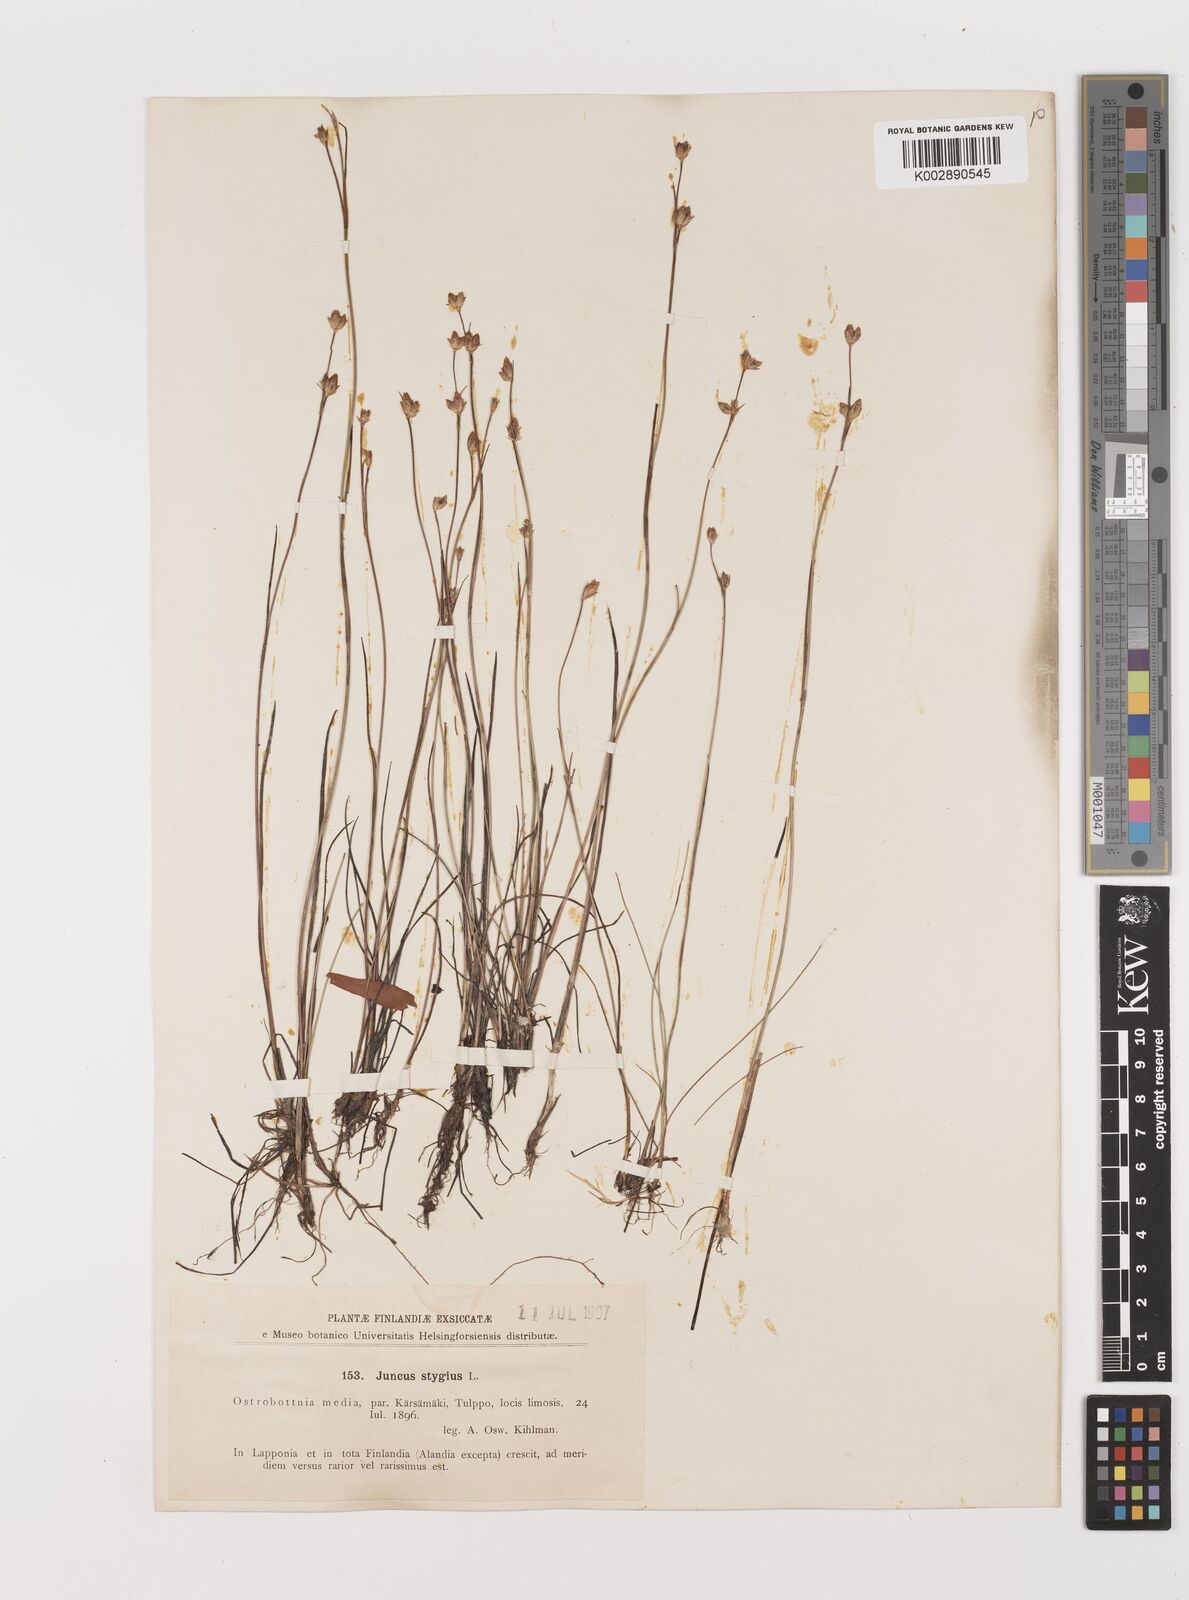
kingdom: Plantae
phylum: Tracheophyta
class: Liliopsida
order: Poales
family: Juncaceae
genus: Juncus
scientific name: Juncus stygius
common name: Bog rush
